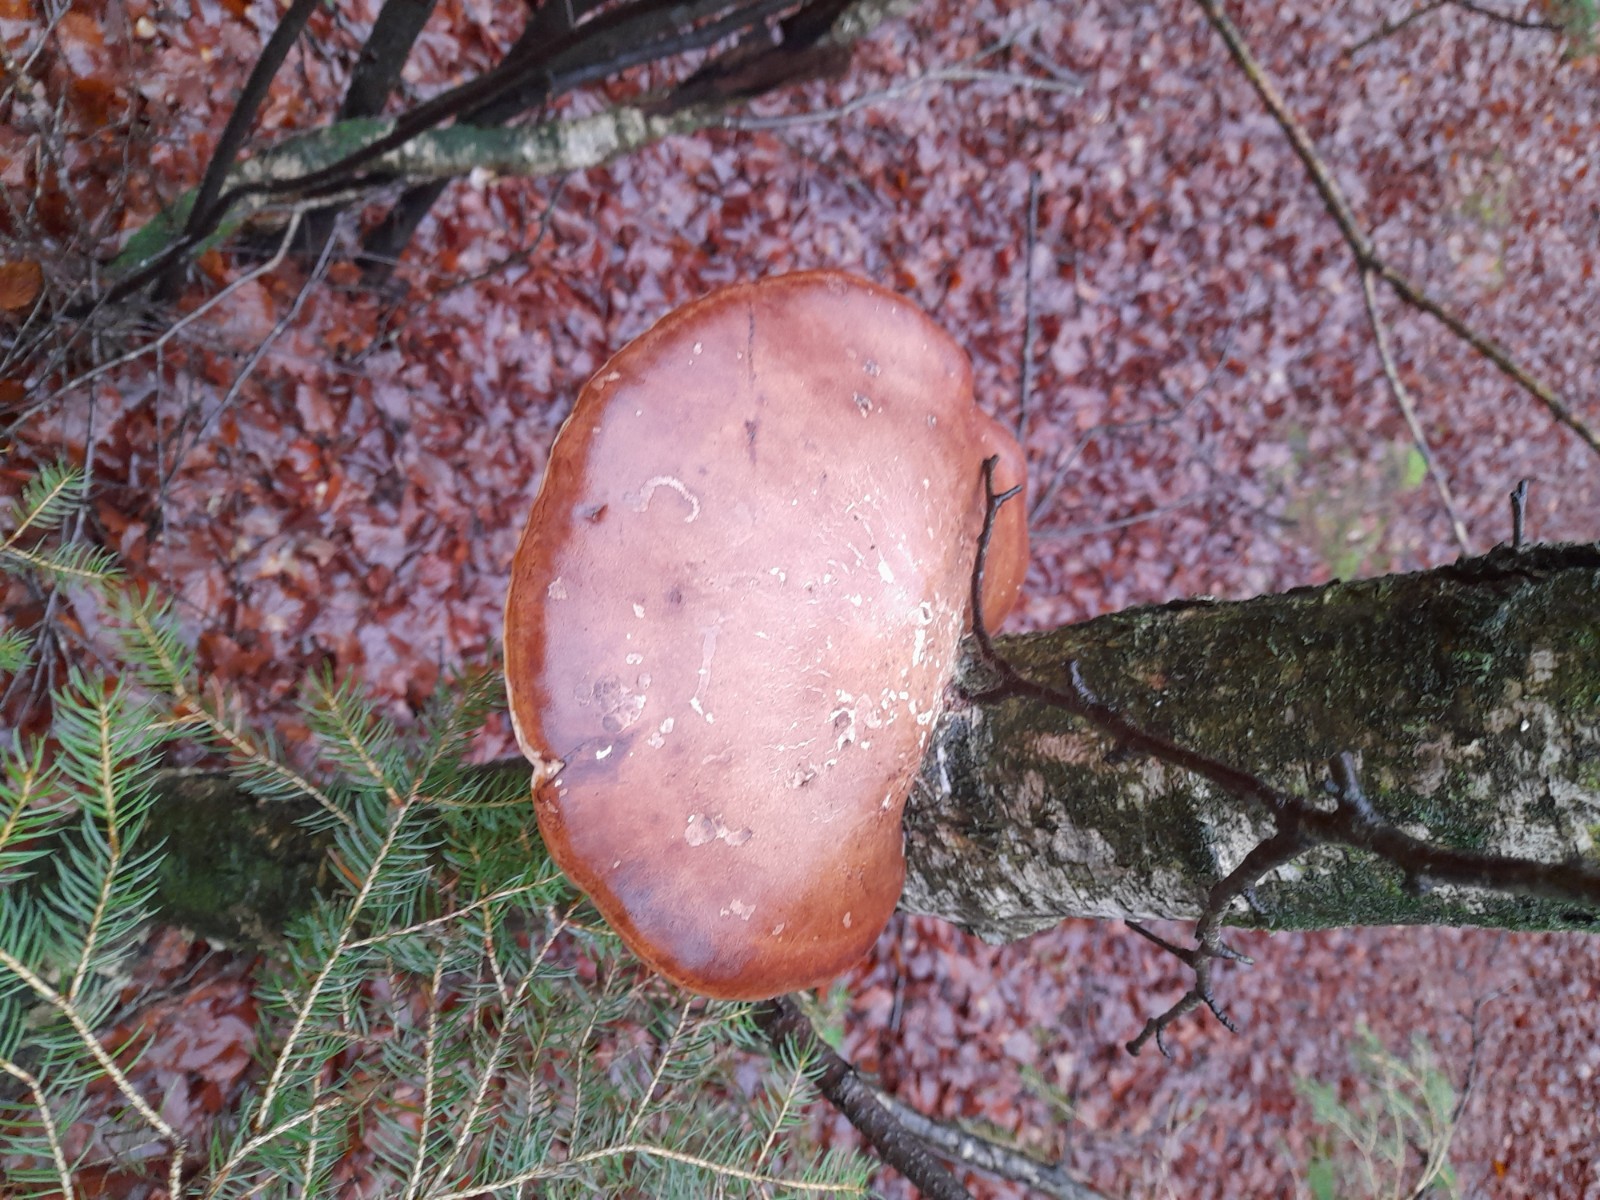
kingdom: Fungi
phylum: Basidiomycota
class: Agaricomycetes
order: Polyporales
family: Fomitopsidaceae
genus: Fomitopsis
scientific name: Fomitopsis betulina
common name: birkeporesvamp
